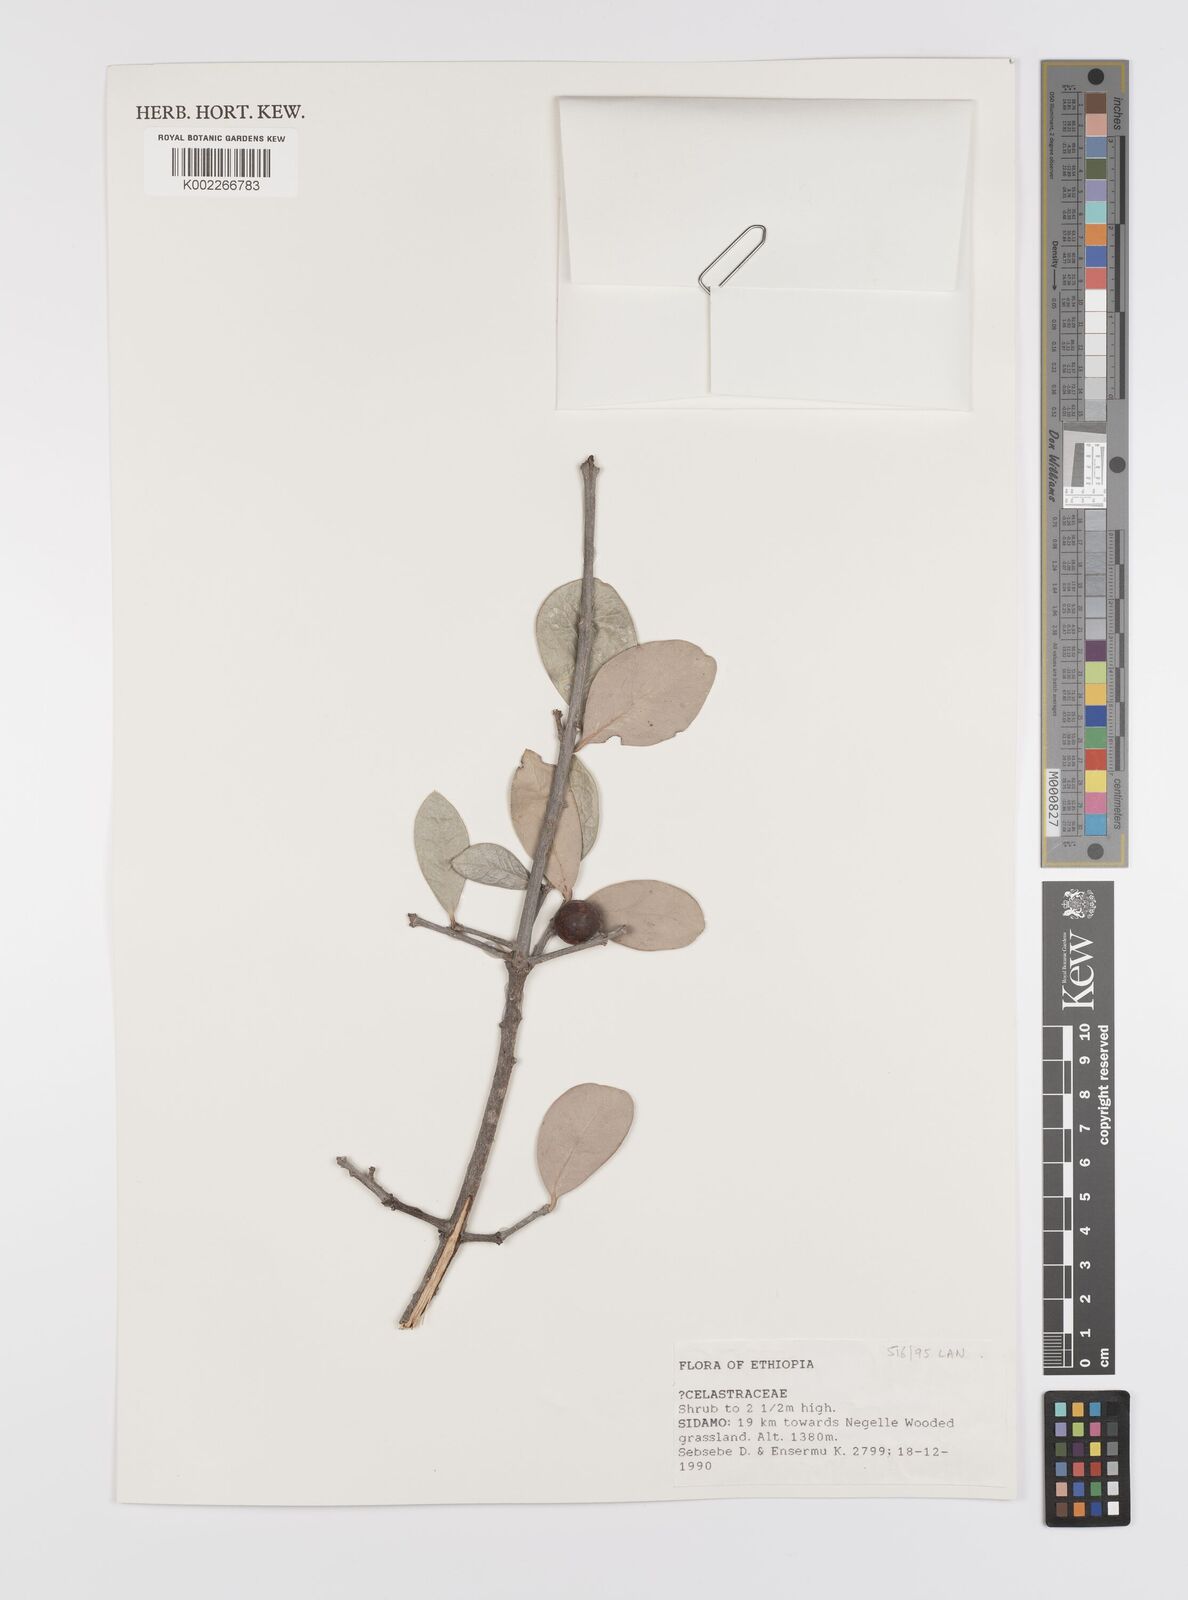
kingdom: Plantae
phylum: Tracheophyta
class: Magnoliopsida
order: Celastrales
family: Celastraceae
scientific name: Celastraceae
